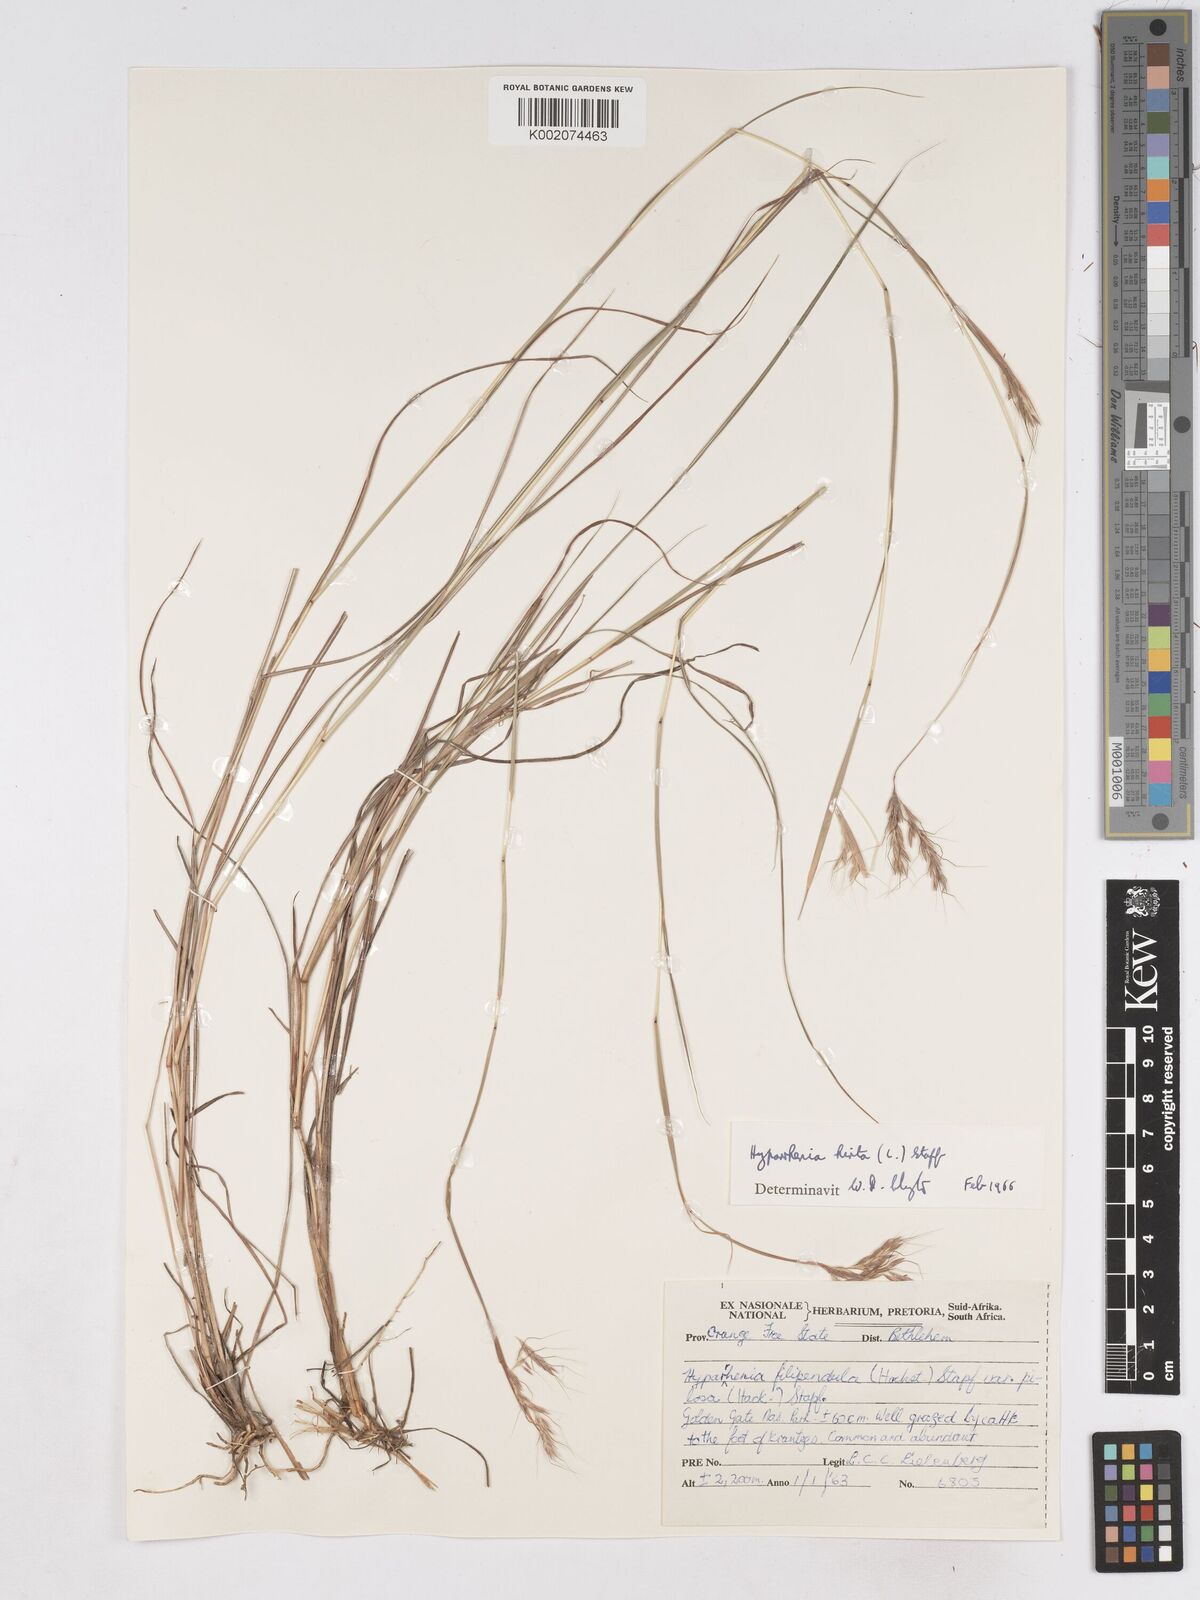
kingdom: Plantae
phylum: Tracheophyta
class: Liliopsida
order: Poales
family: Poaceae
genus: Hyparrhenia
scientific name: Hyparrhenia hirta
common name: Thatching grass
